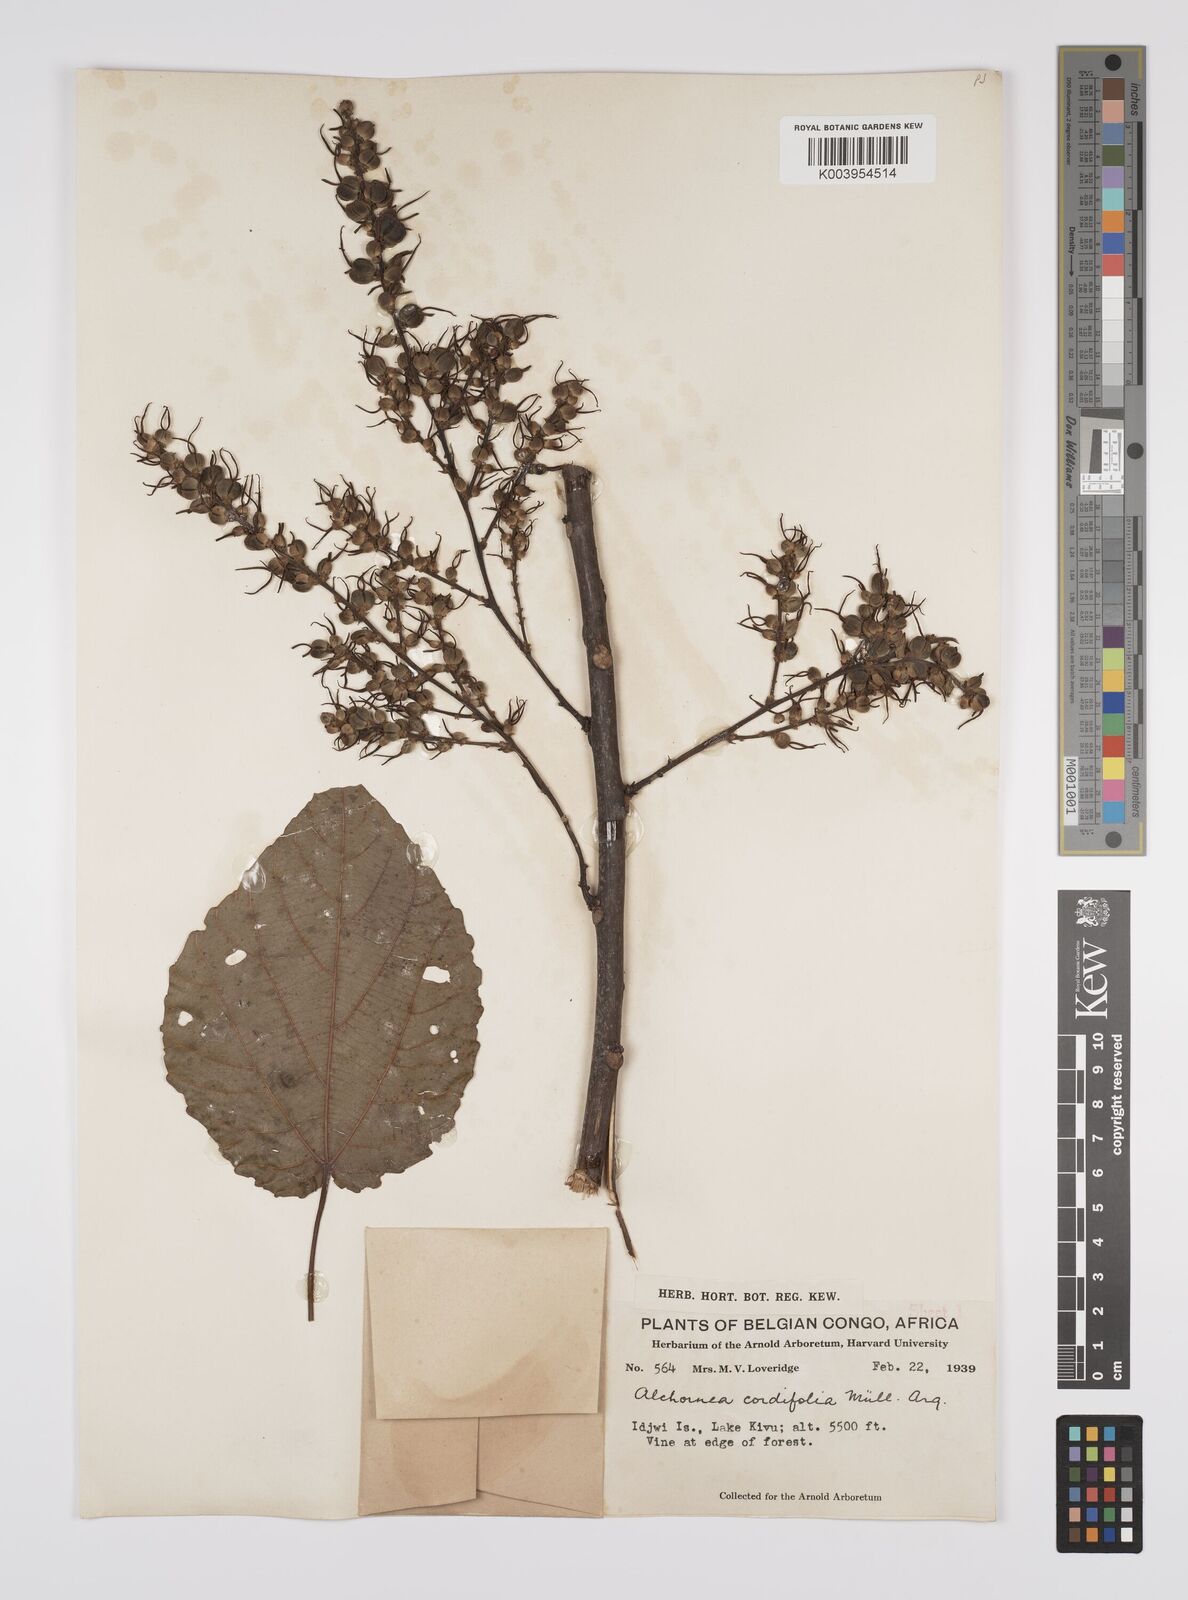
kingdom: Plantae
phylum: Tracheophyta
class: Magnoliopsida
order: Malpighiales
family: Euphorbiaceae
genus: Alchornea
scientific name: Alchornea cordifolia
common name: Christmasbush
